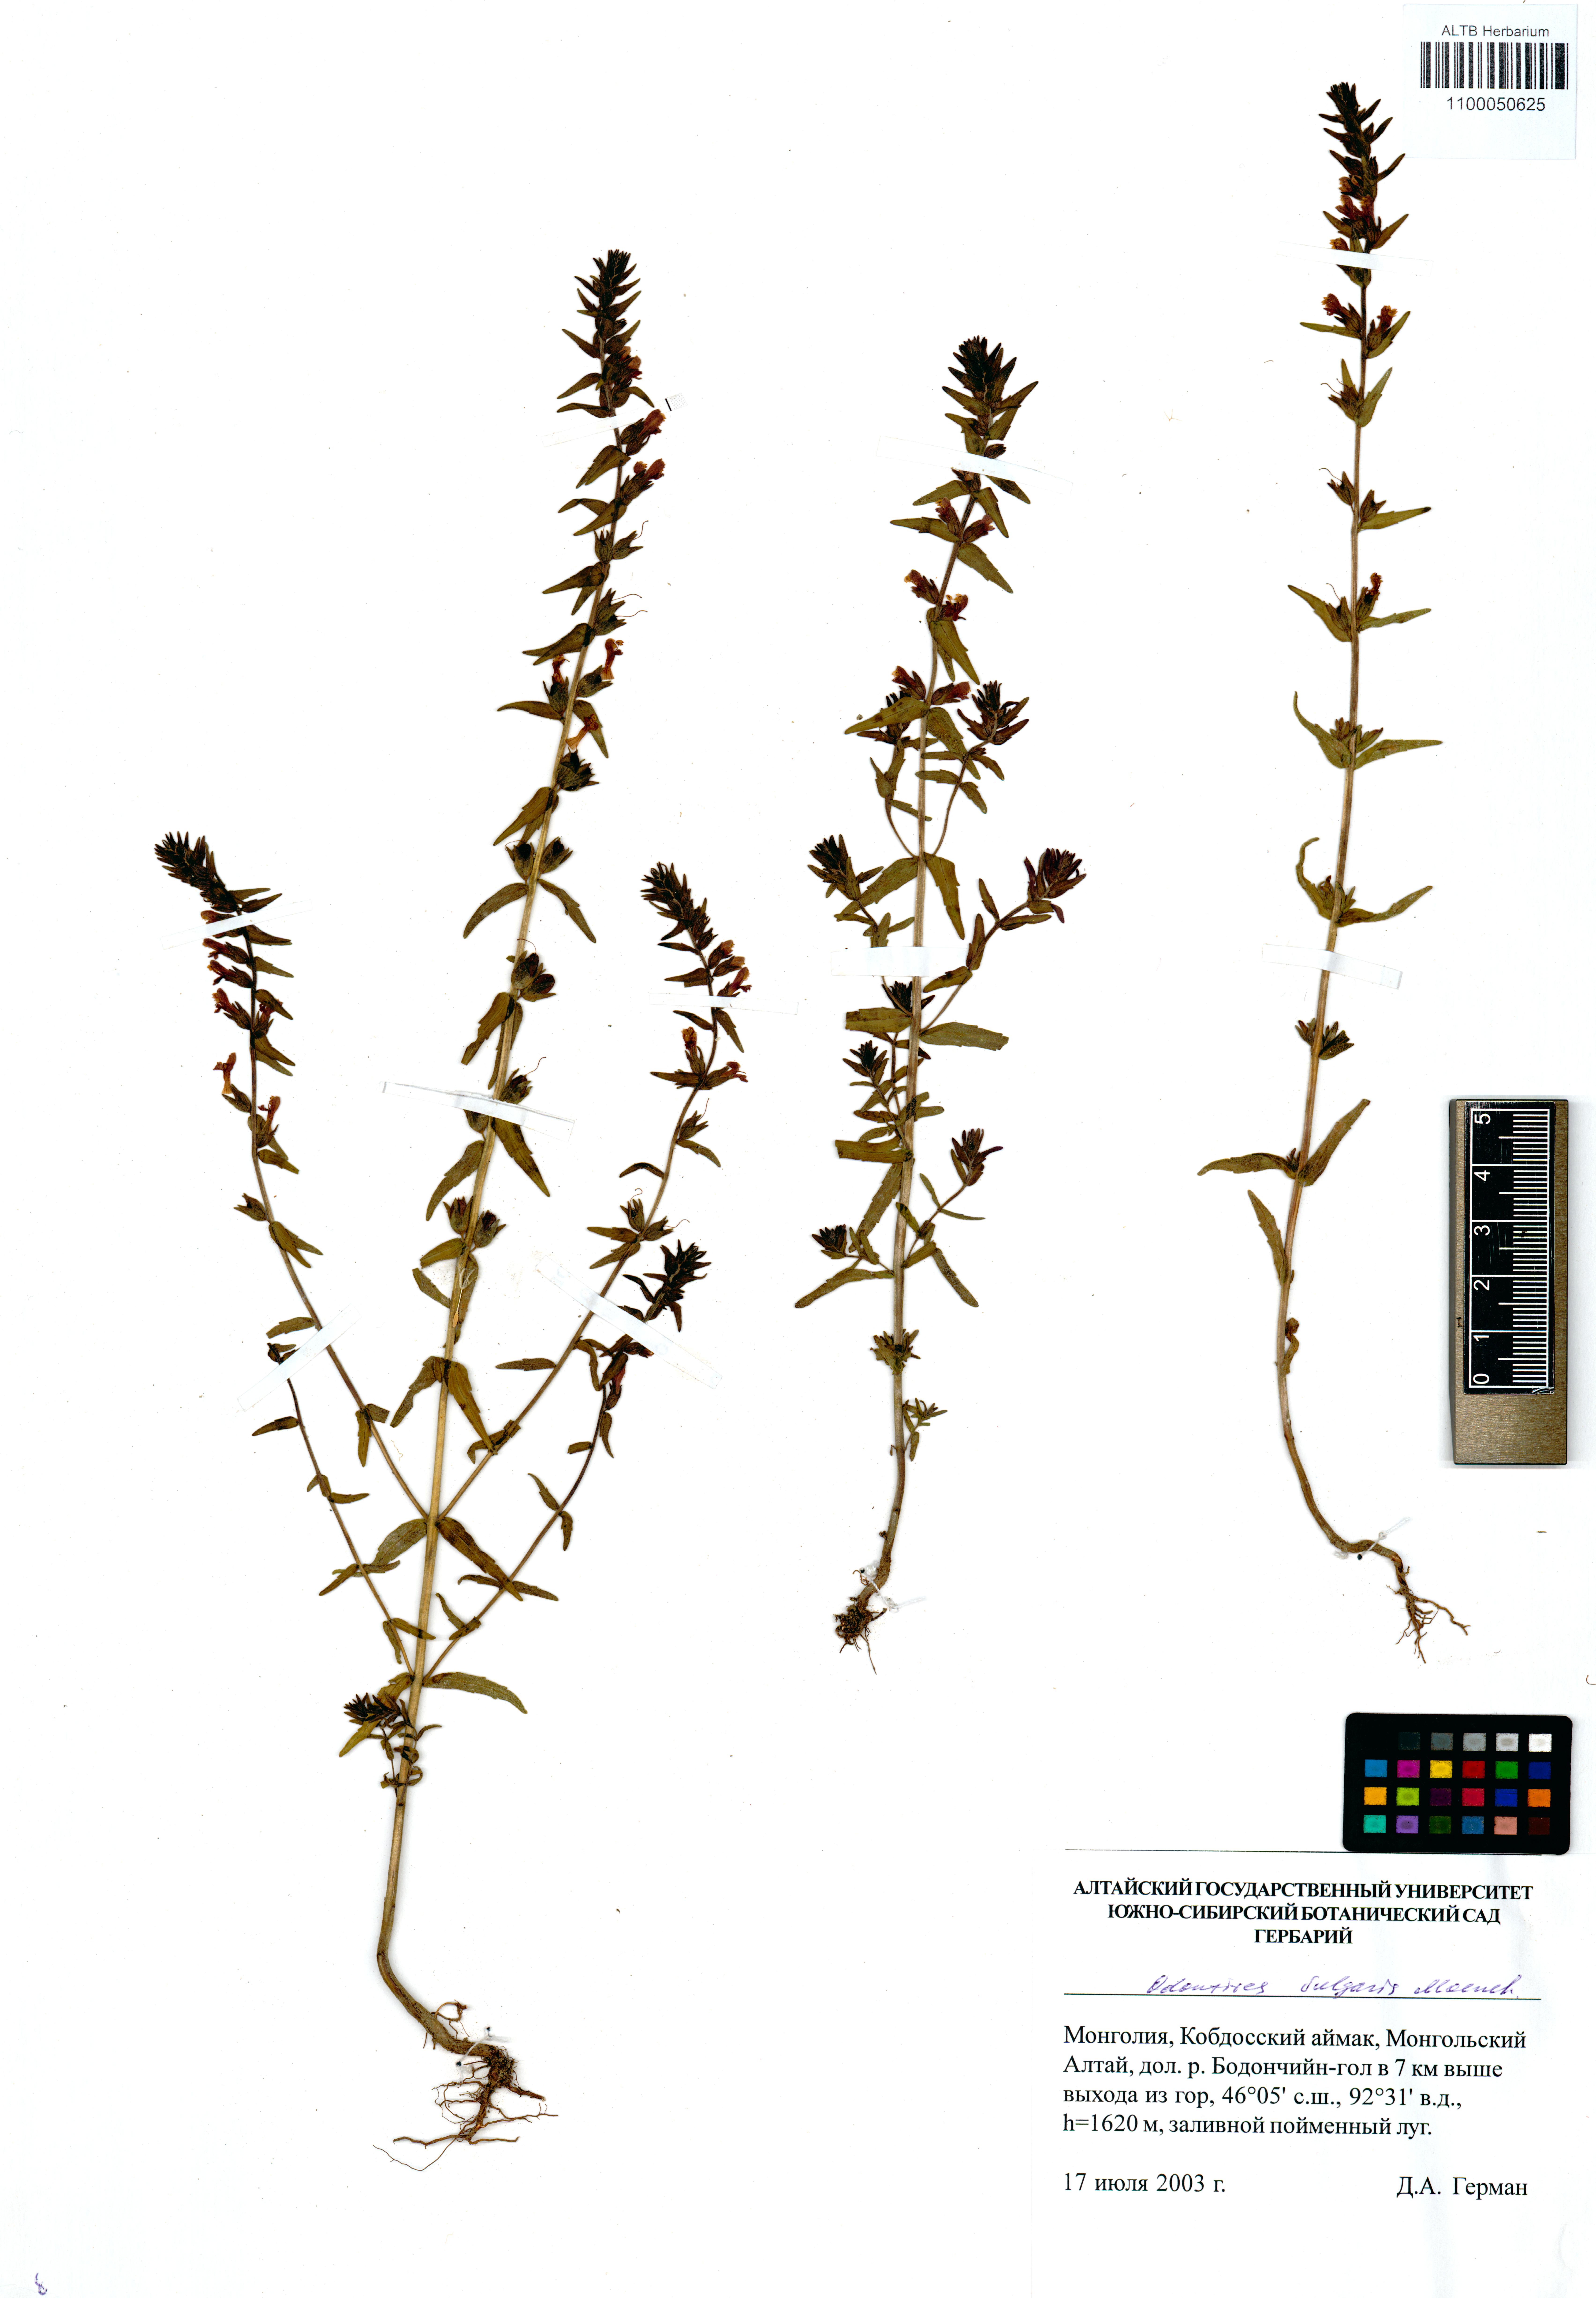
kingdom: Plantae
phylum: Tracheophyta
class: Magnoliopsida
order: Lamiales
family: Orobanchaceae
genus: Odontites
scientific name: Odontites vulgaris
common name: Broomrape
